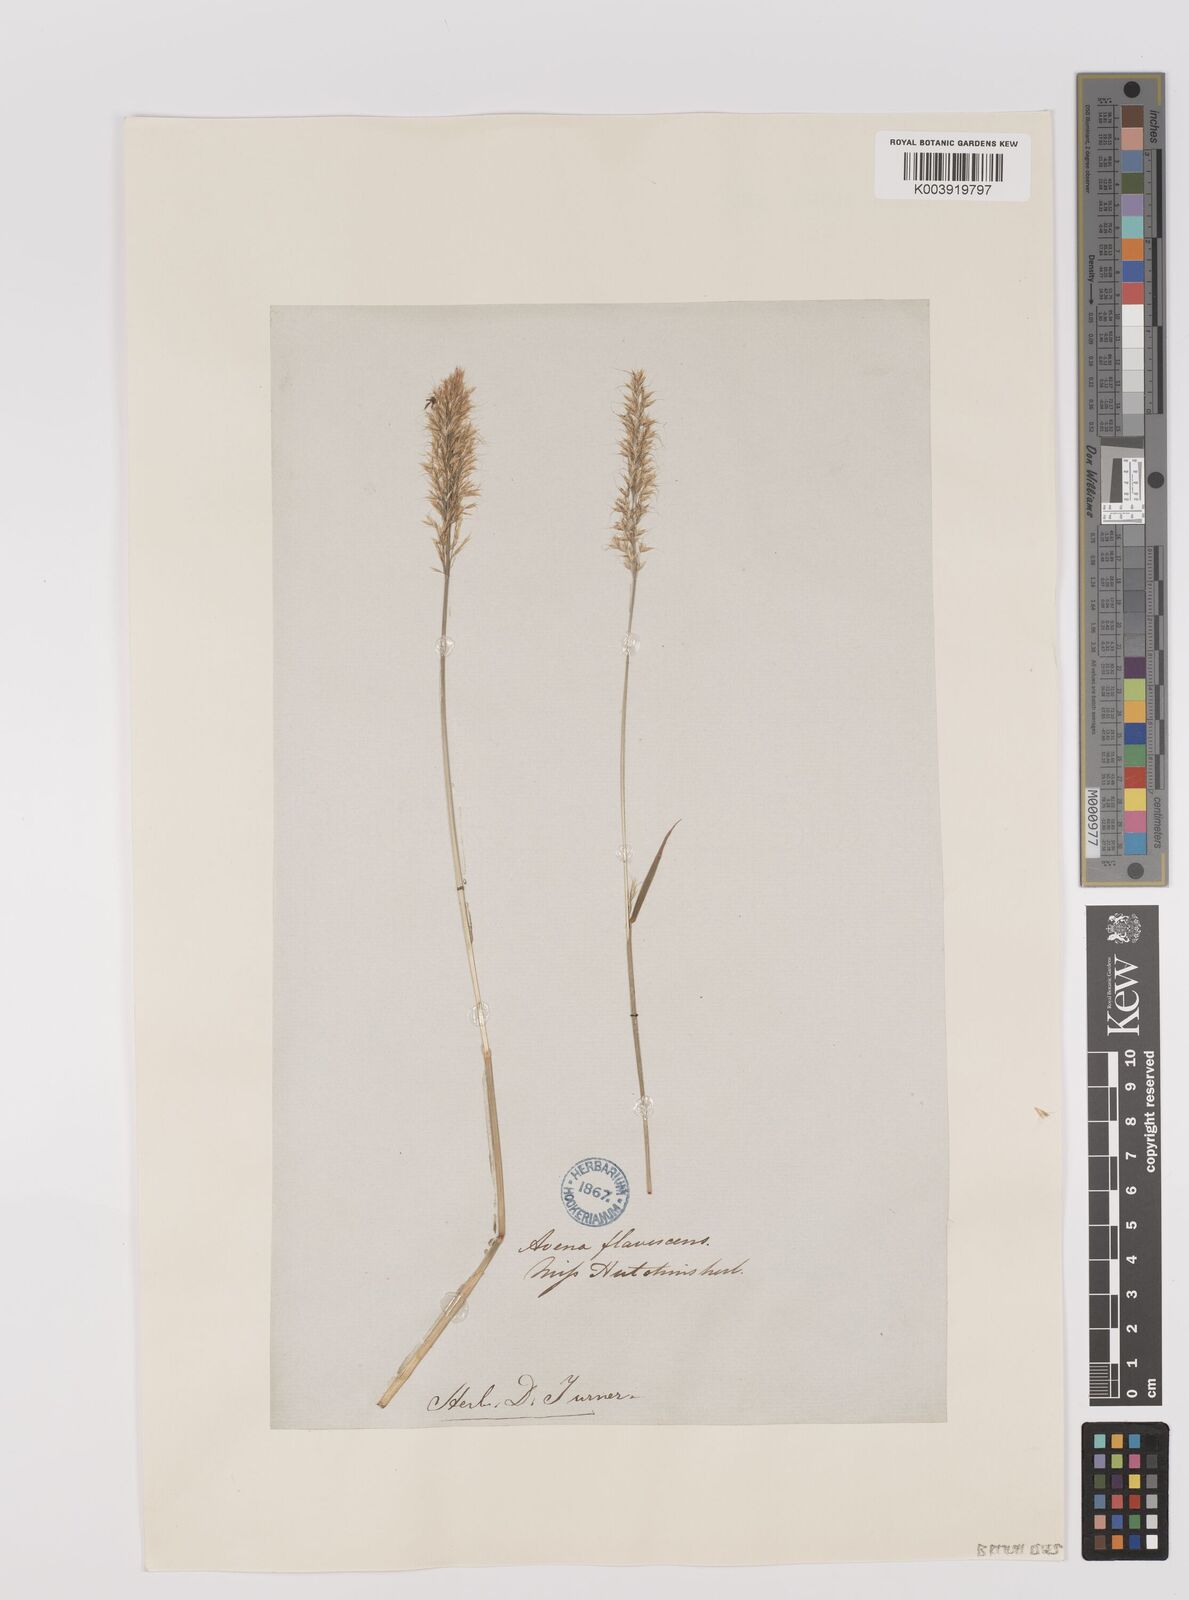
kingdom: Plantae
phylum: Tracheophyta
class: Liliopsida
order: Poales
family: Poaceae
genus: Trisetum
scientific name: Trisetum flavescens
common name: Yellow oat-grass
